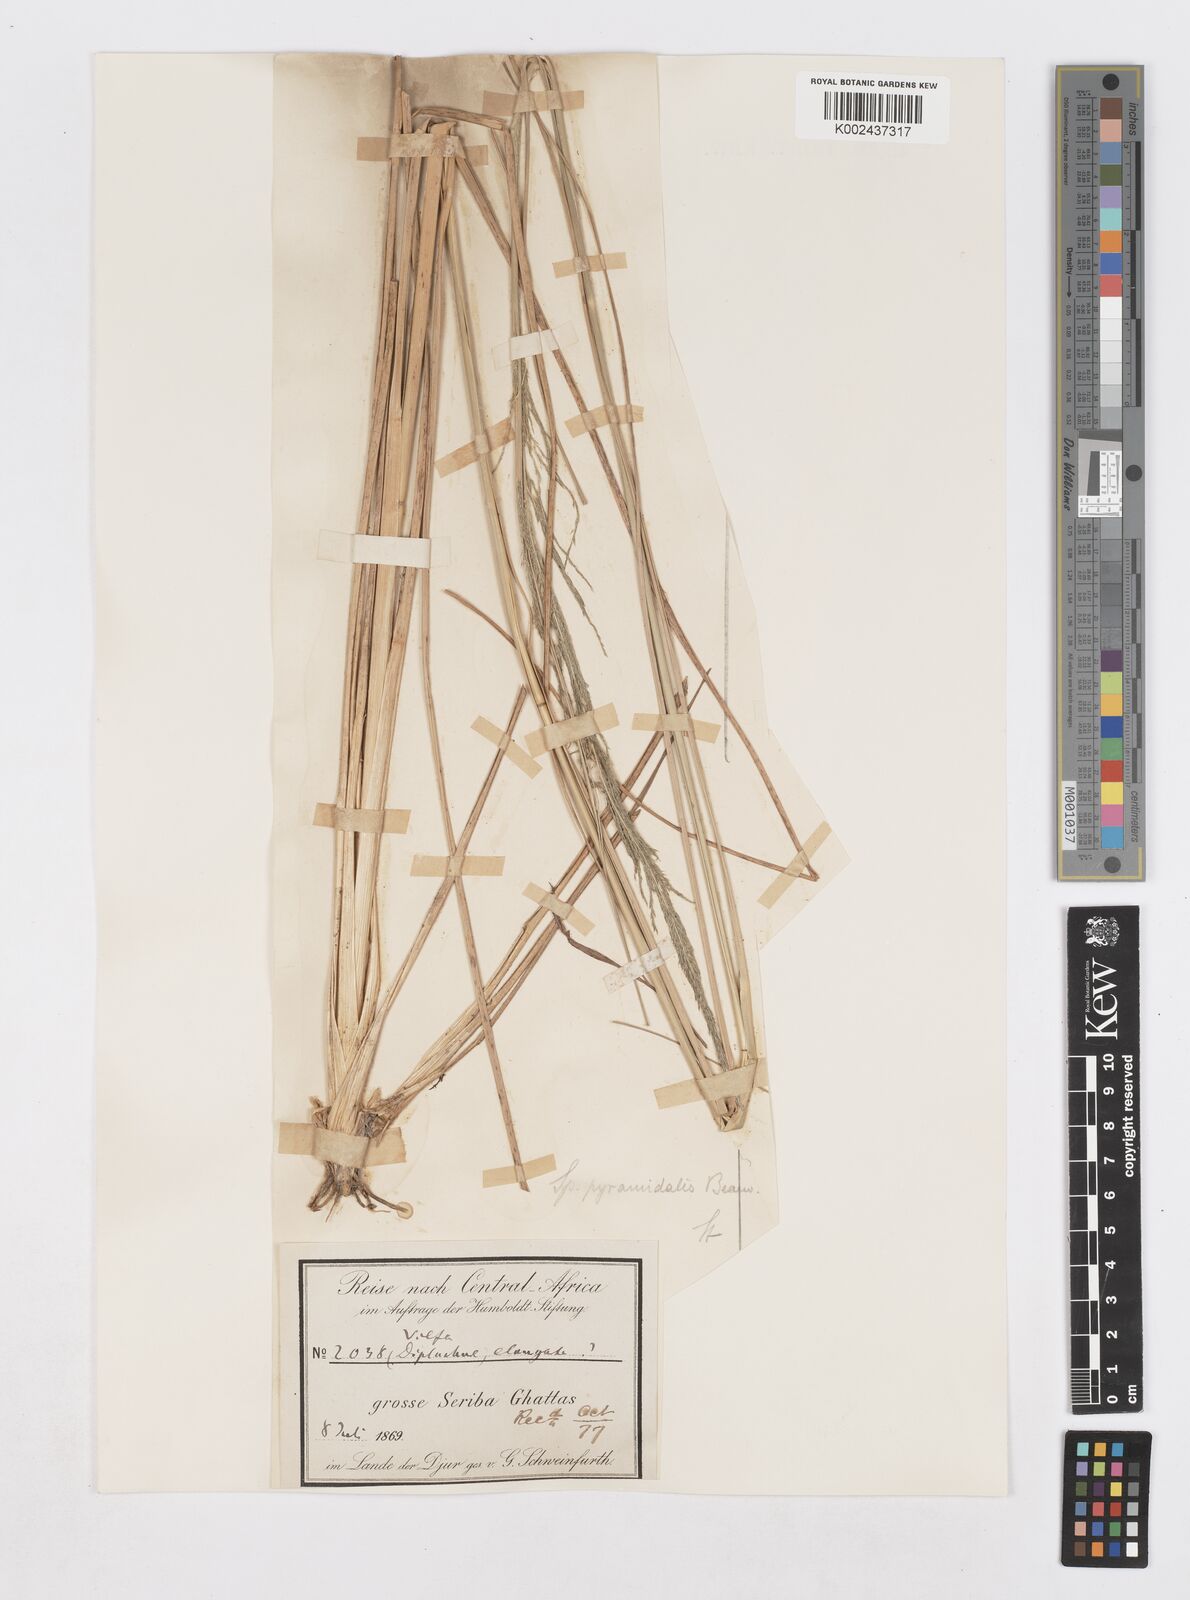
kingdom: Plantae
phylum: Tracheophyta
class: Liliopsida
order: Poales
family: Poaceae
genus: Sporobolus
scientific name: Sporobolus pyramidalis
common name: West indian dropseed
